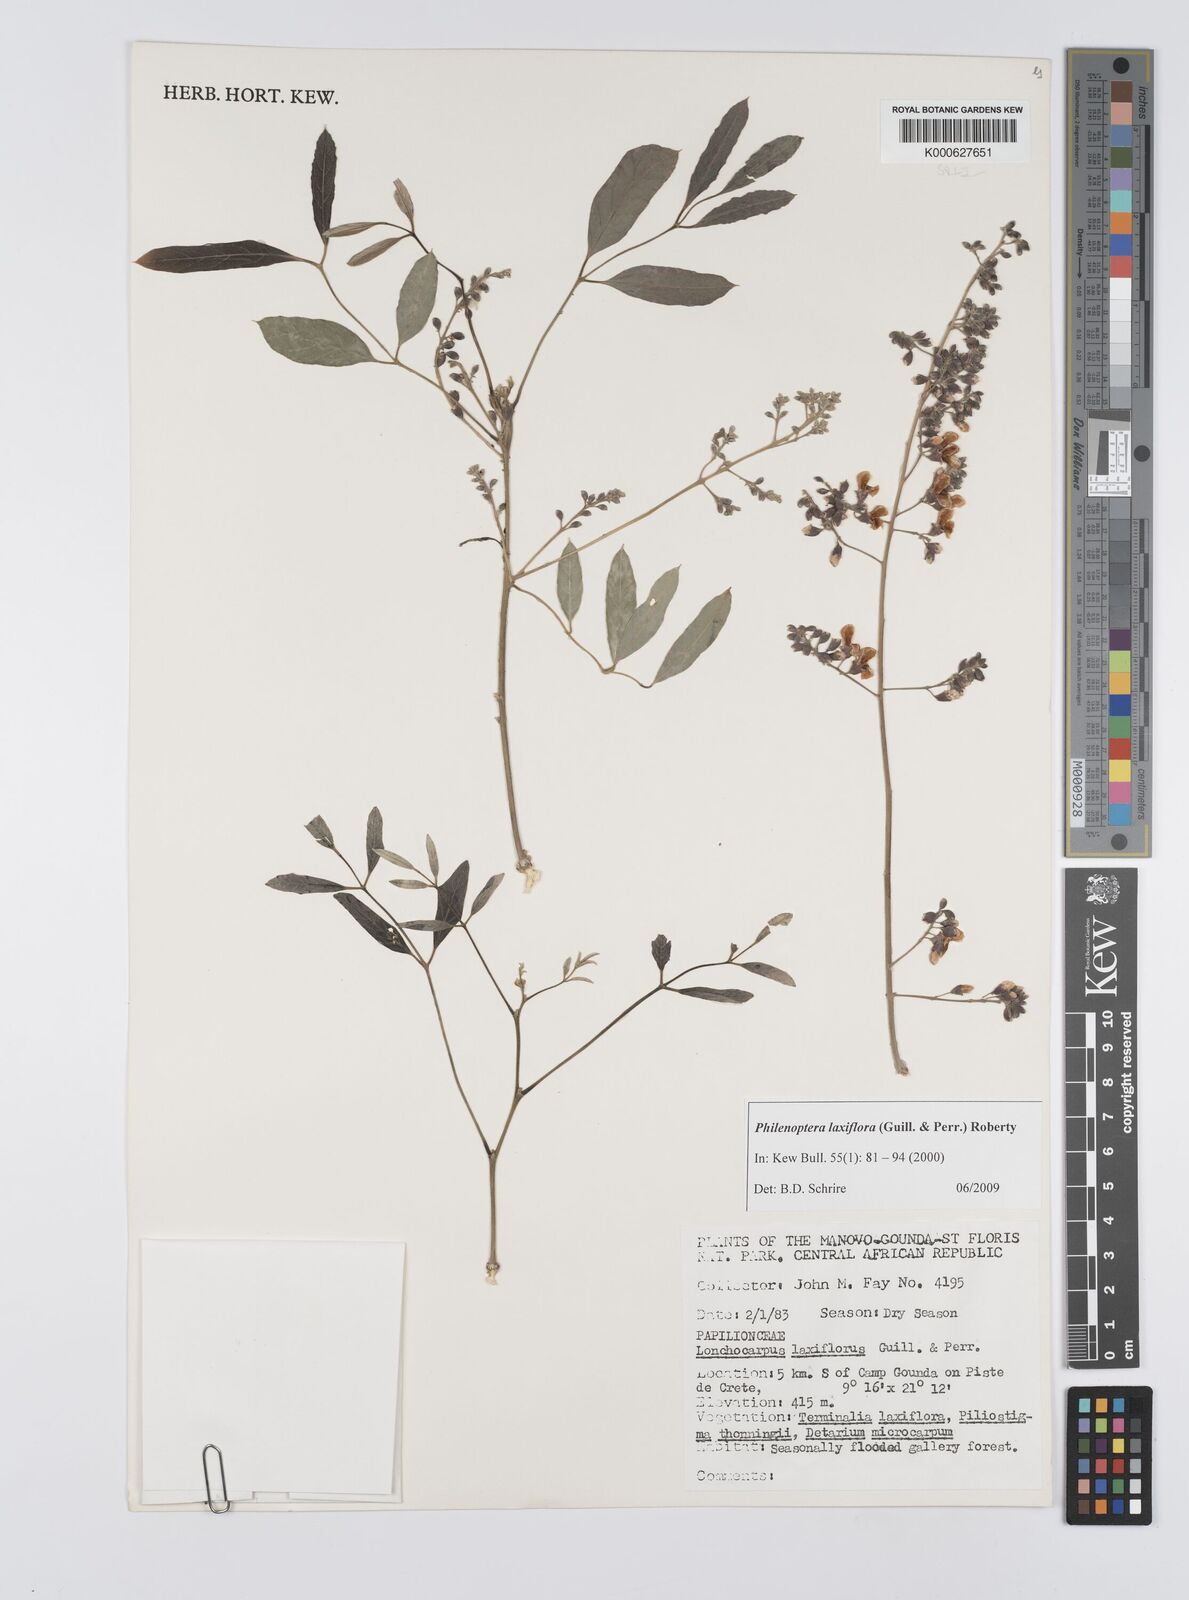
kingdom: Plantae
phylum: Tracheophyta
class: Magnoliopsida
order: Fabales
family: Fabaceae
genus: Philenoptera
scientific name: Philenoptera laxiflora
